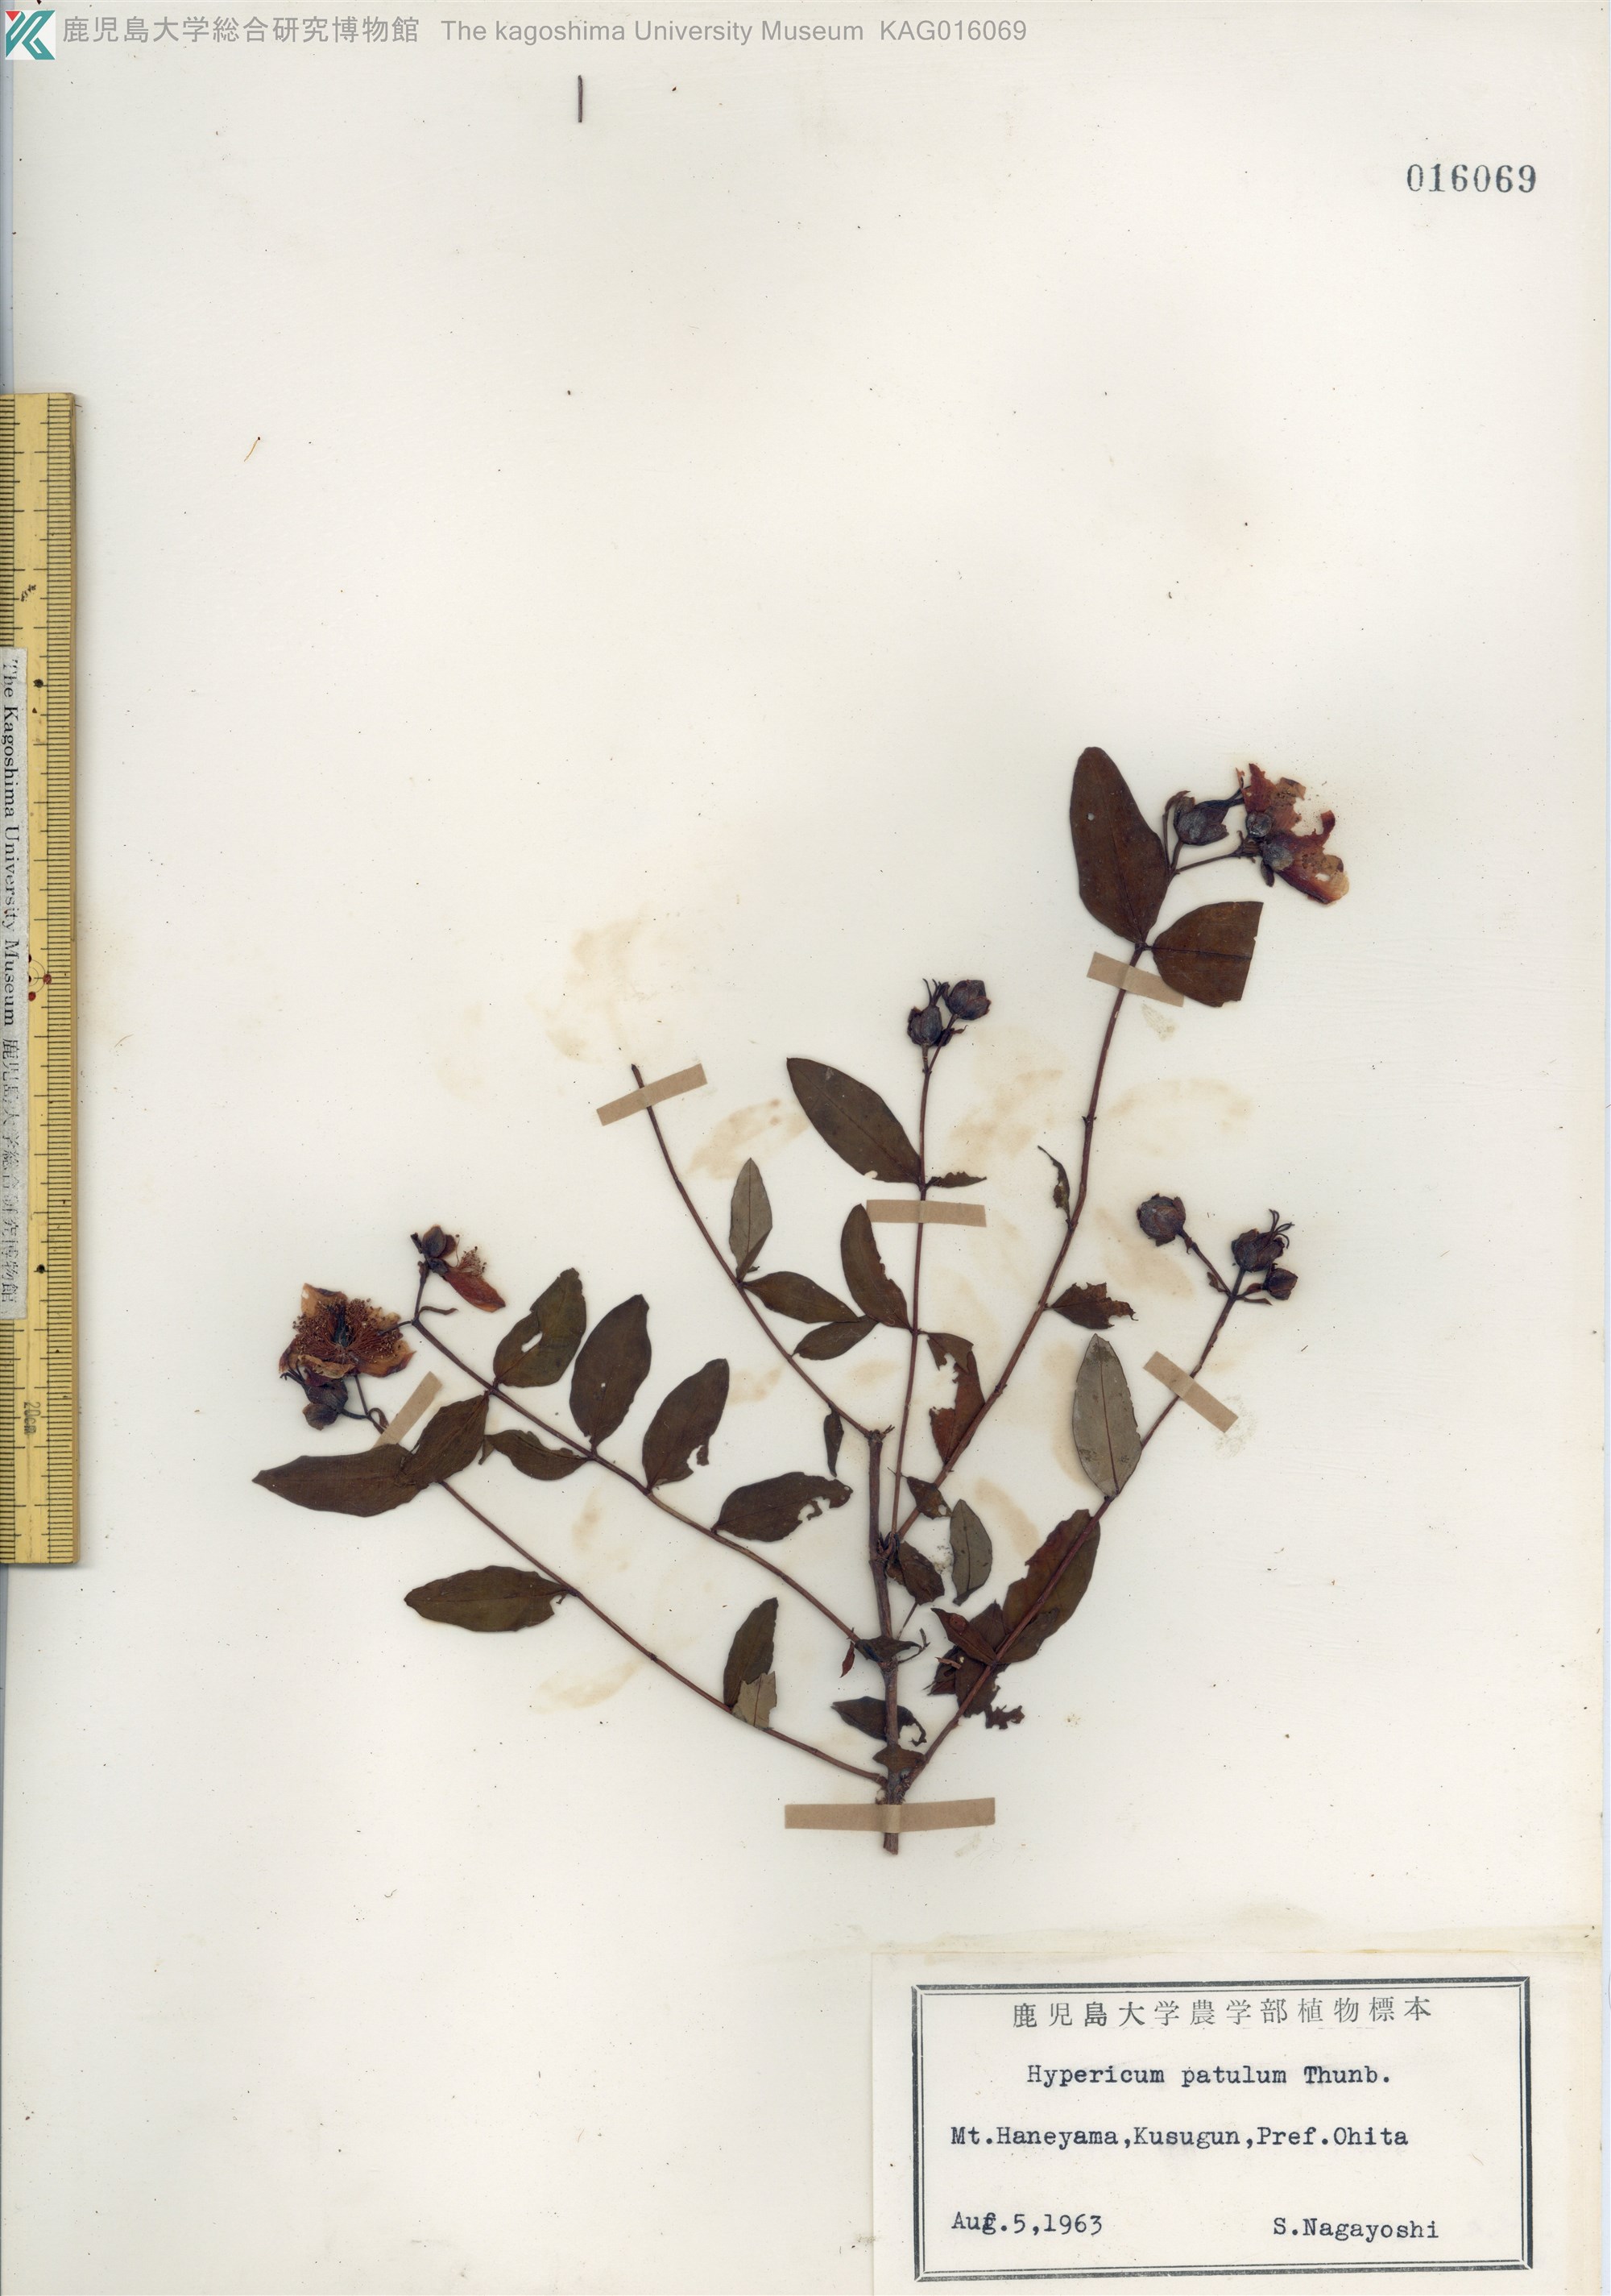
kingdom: Plantae
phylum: Tracheophyta
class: Magnoliopsida
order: Malpighiales
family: Hypericaceae
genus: Hypericum
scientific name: Hypericum patulum
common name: キンシバイ
